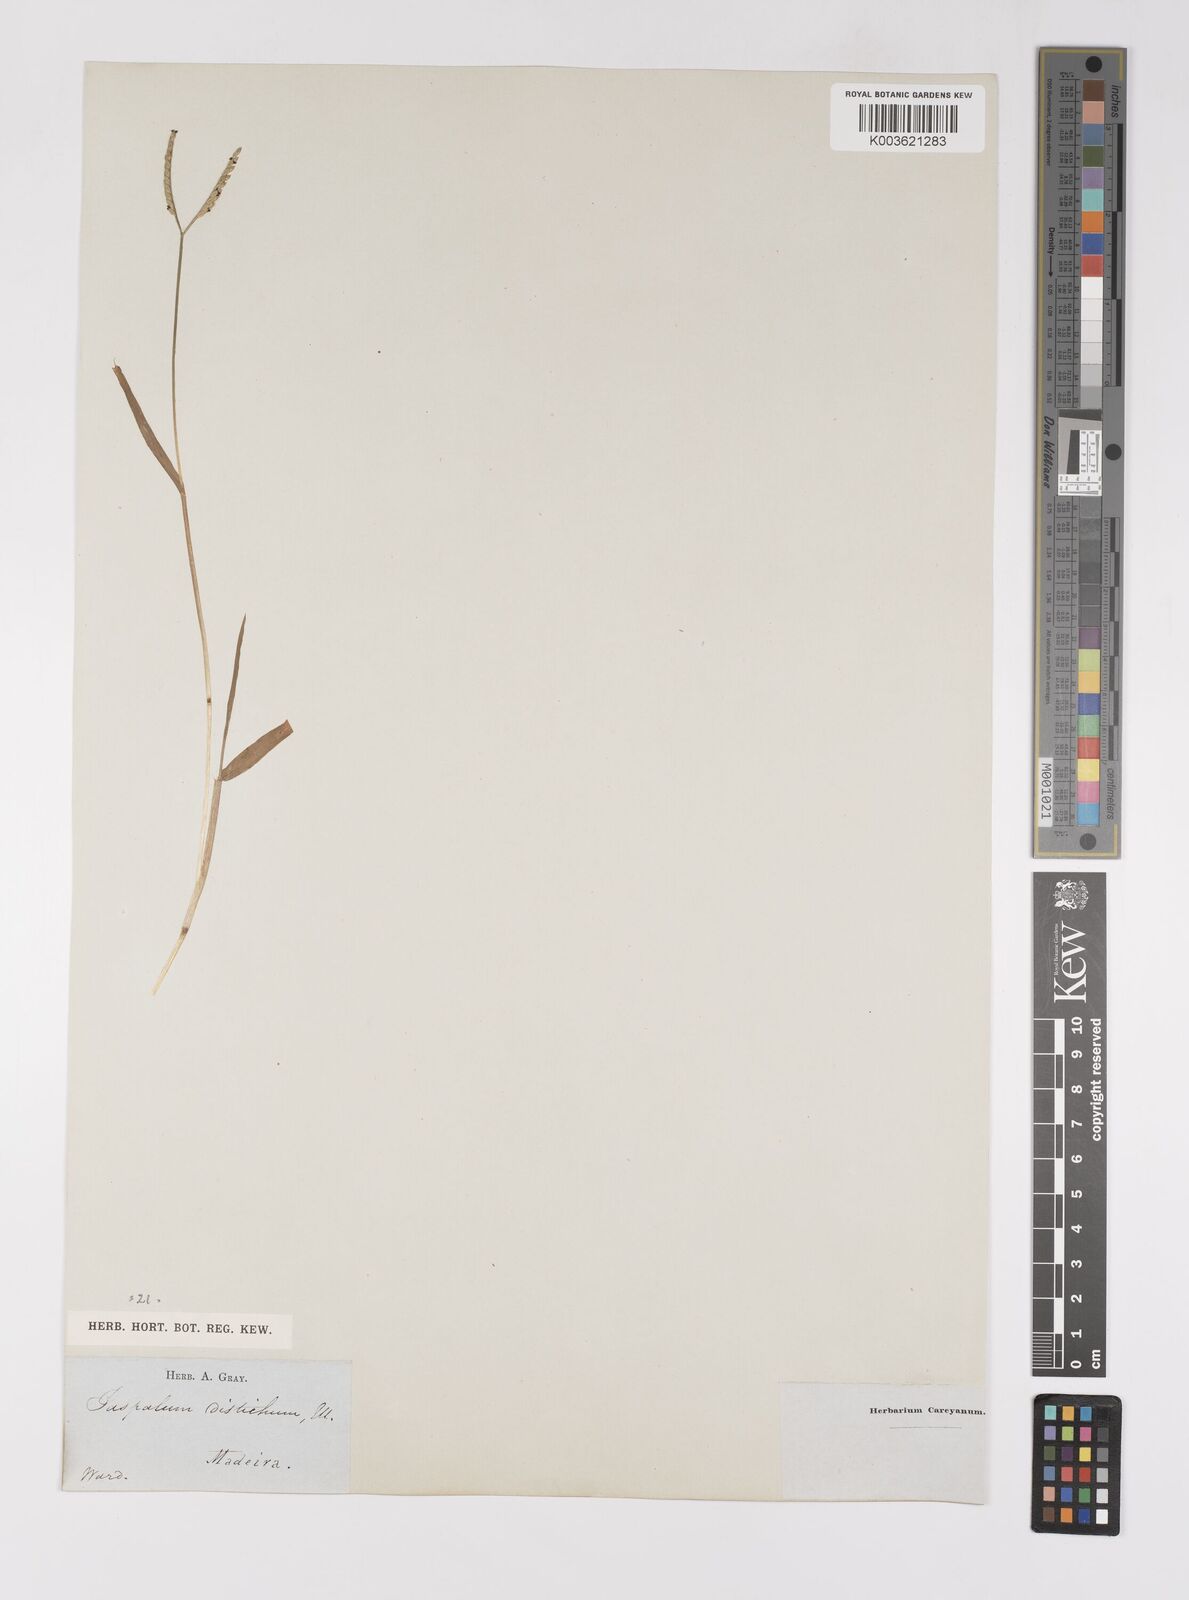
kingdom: Plantae
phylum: Tracheophyta
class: Liliopsida
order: Poales
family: Poaceae
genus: Paspalum
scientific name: Paspalum distichum
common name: Knotgrass
